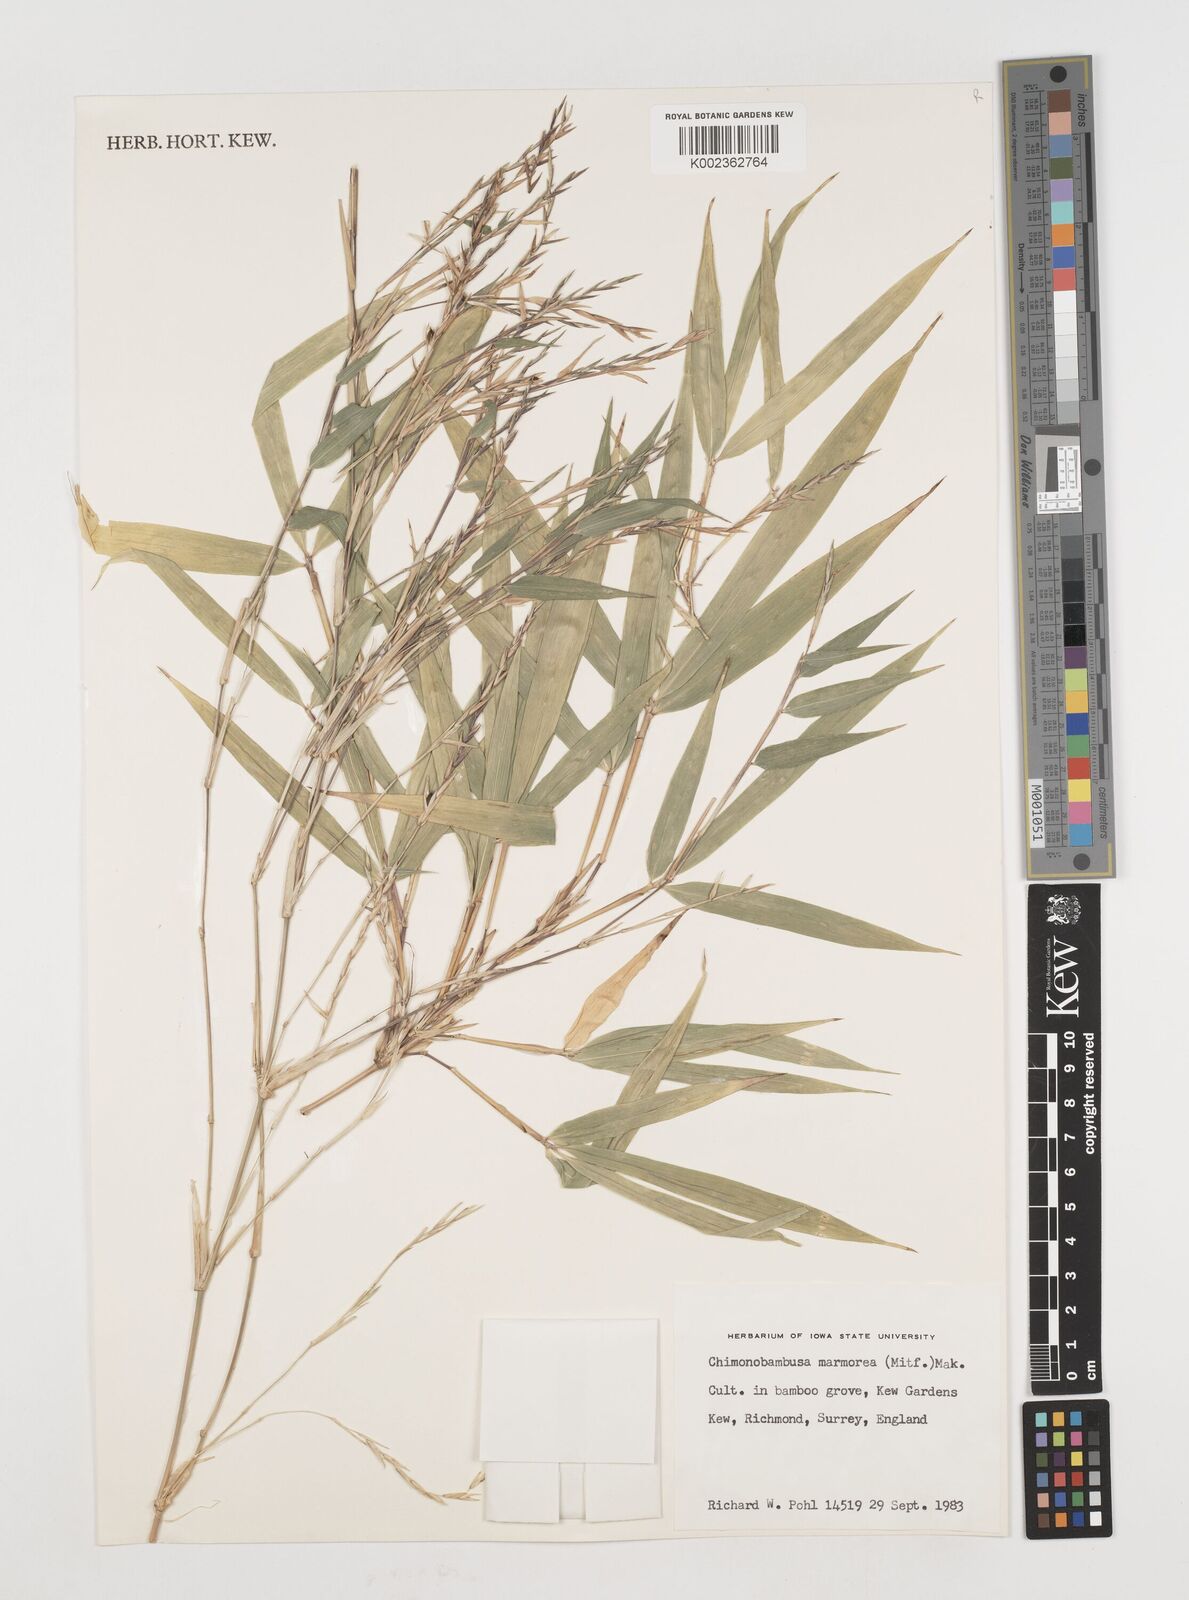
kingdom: Plantae
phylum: Tracheophyta
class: Liliopsida
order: Poales
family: Poaceae
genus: Chimonobambusa
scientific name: Chimonobambusa marmorea
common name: Marbled bamboo
